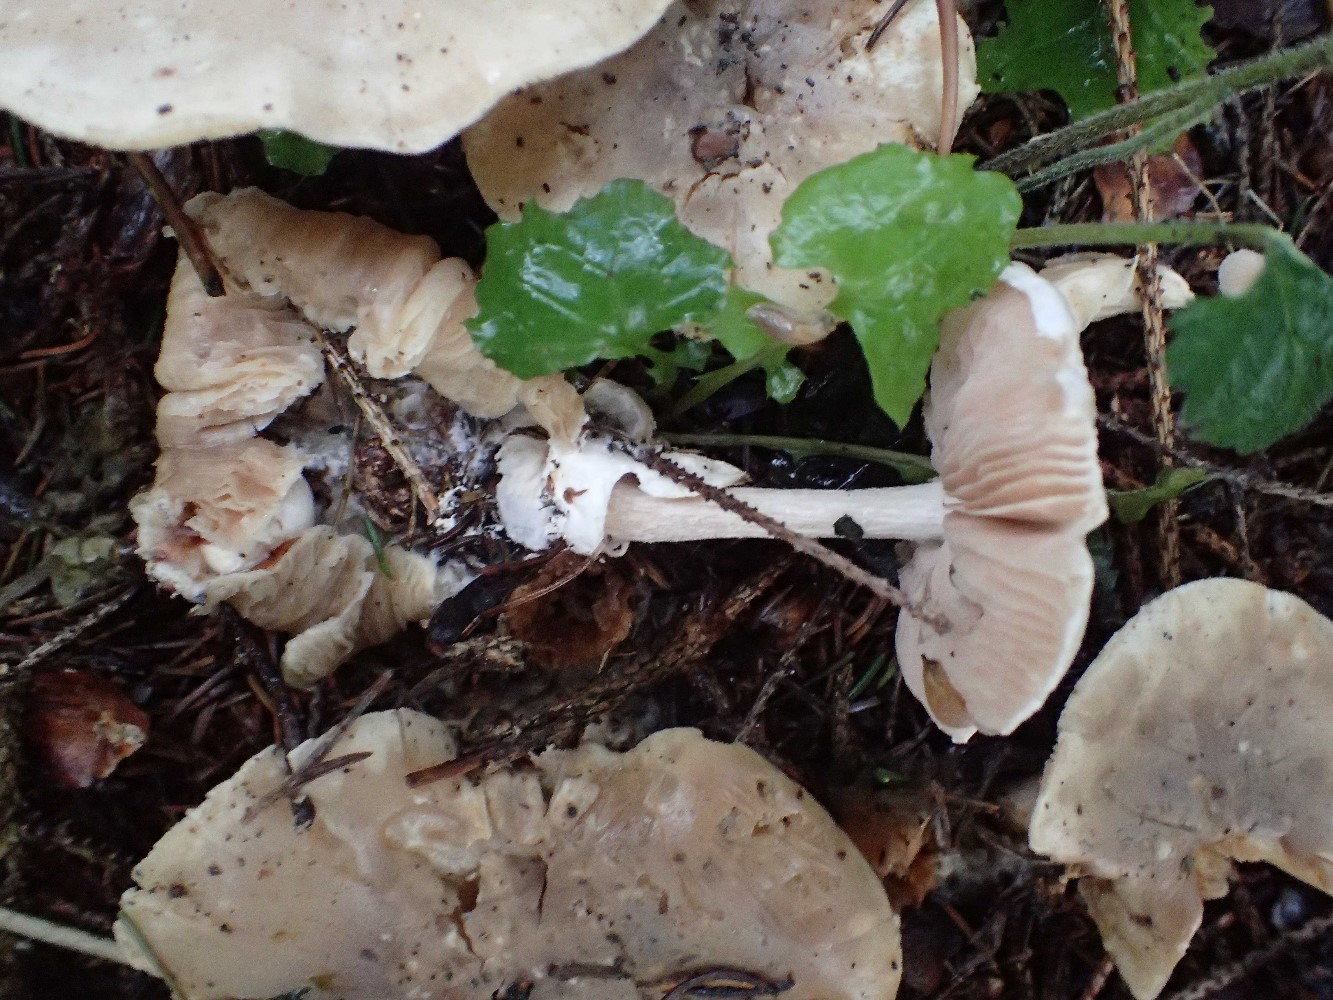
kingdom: Fungi
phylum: Basidiomycota
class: Agaricomycetes
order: Agaricales
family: Pluteaceae
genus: Volvariella
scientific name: Volvariella surrecta
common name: snyltende posesvamp
